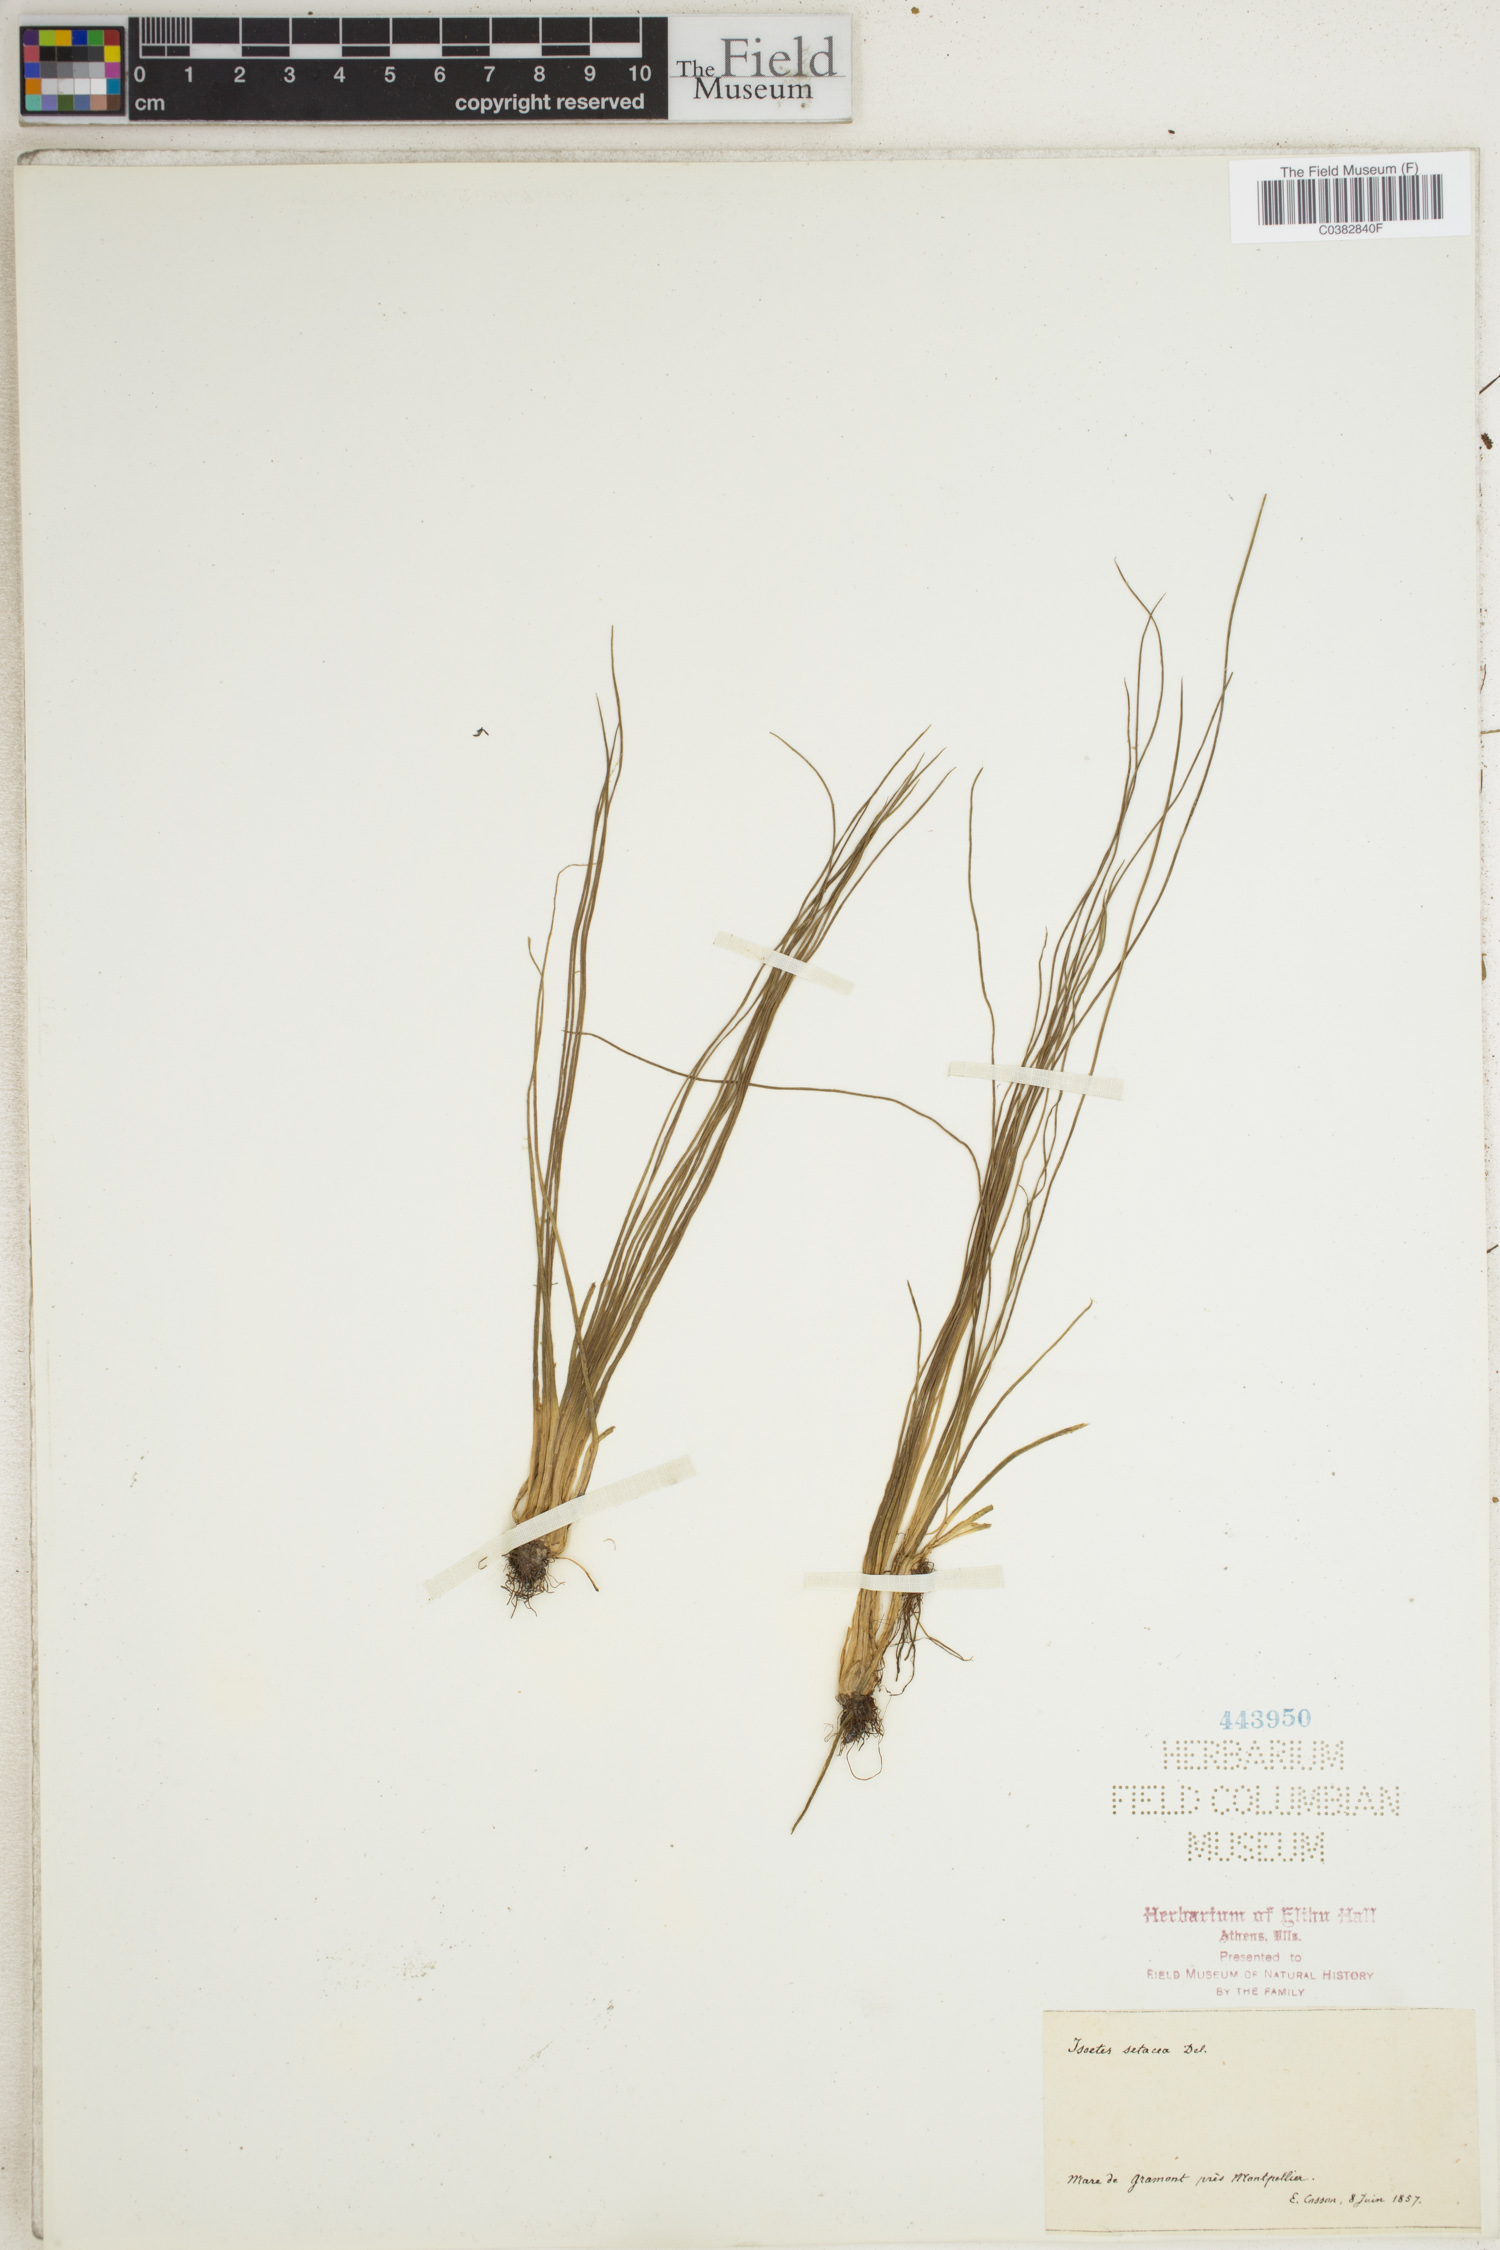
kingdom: Plantae
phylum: Tracheophyta
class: Lycopodiopsida
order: Isoetales
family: Isoetaceae
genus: Isoetes
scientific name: Isoetes lacustris
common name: Common quillwort
